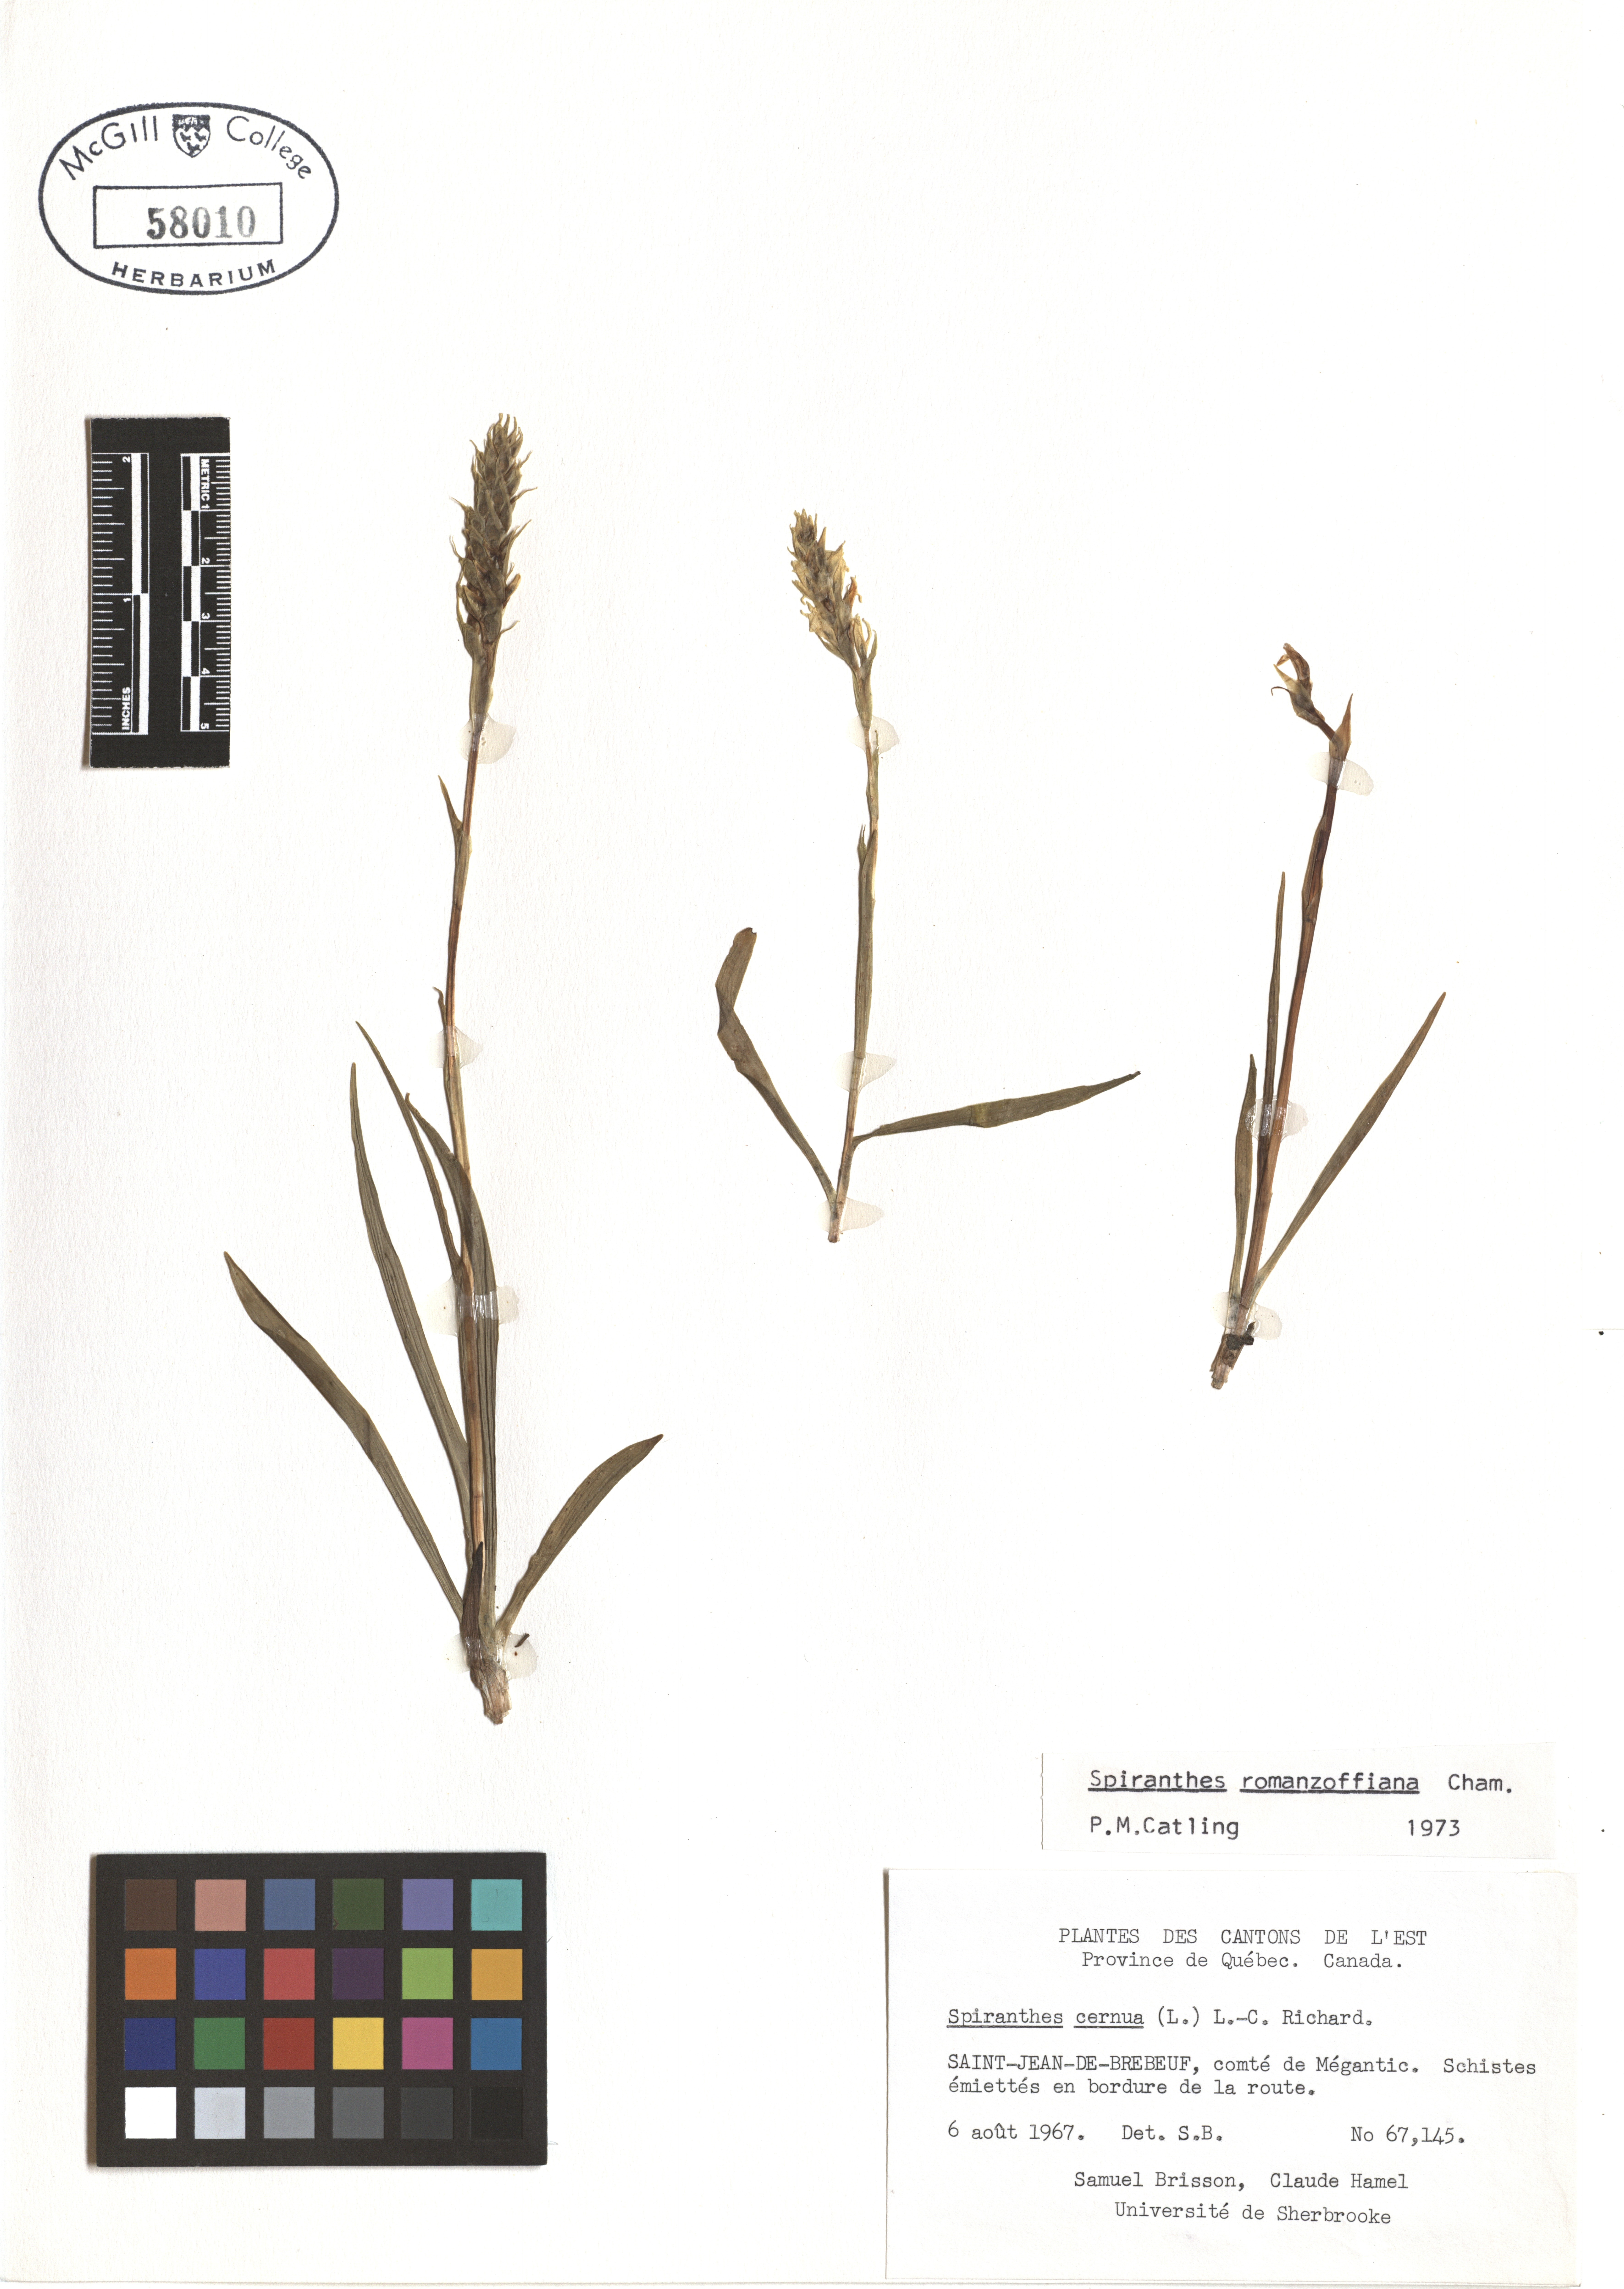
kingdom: Plantae
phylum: Tracheophyta
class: Liliopsida
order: Asparagales
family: Orchidaceae
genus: Spiranthes
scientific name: Spiranthes romanzoffiana
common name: Irish lady's-tresses
